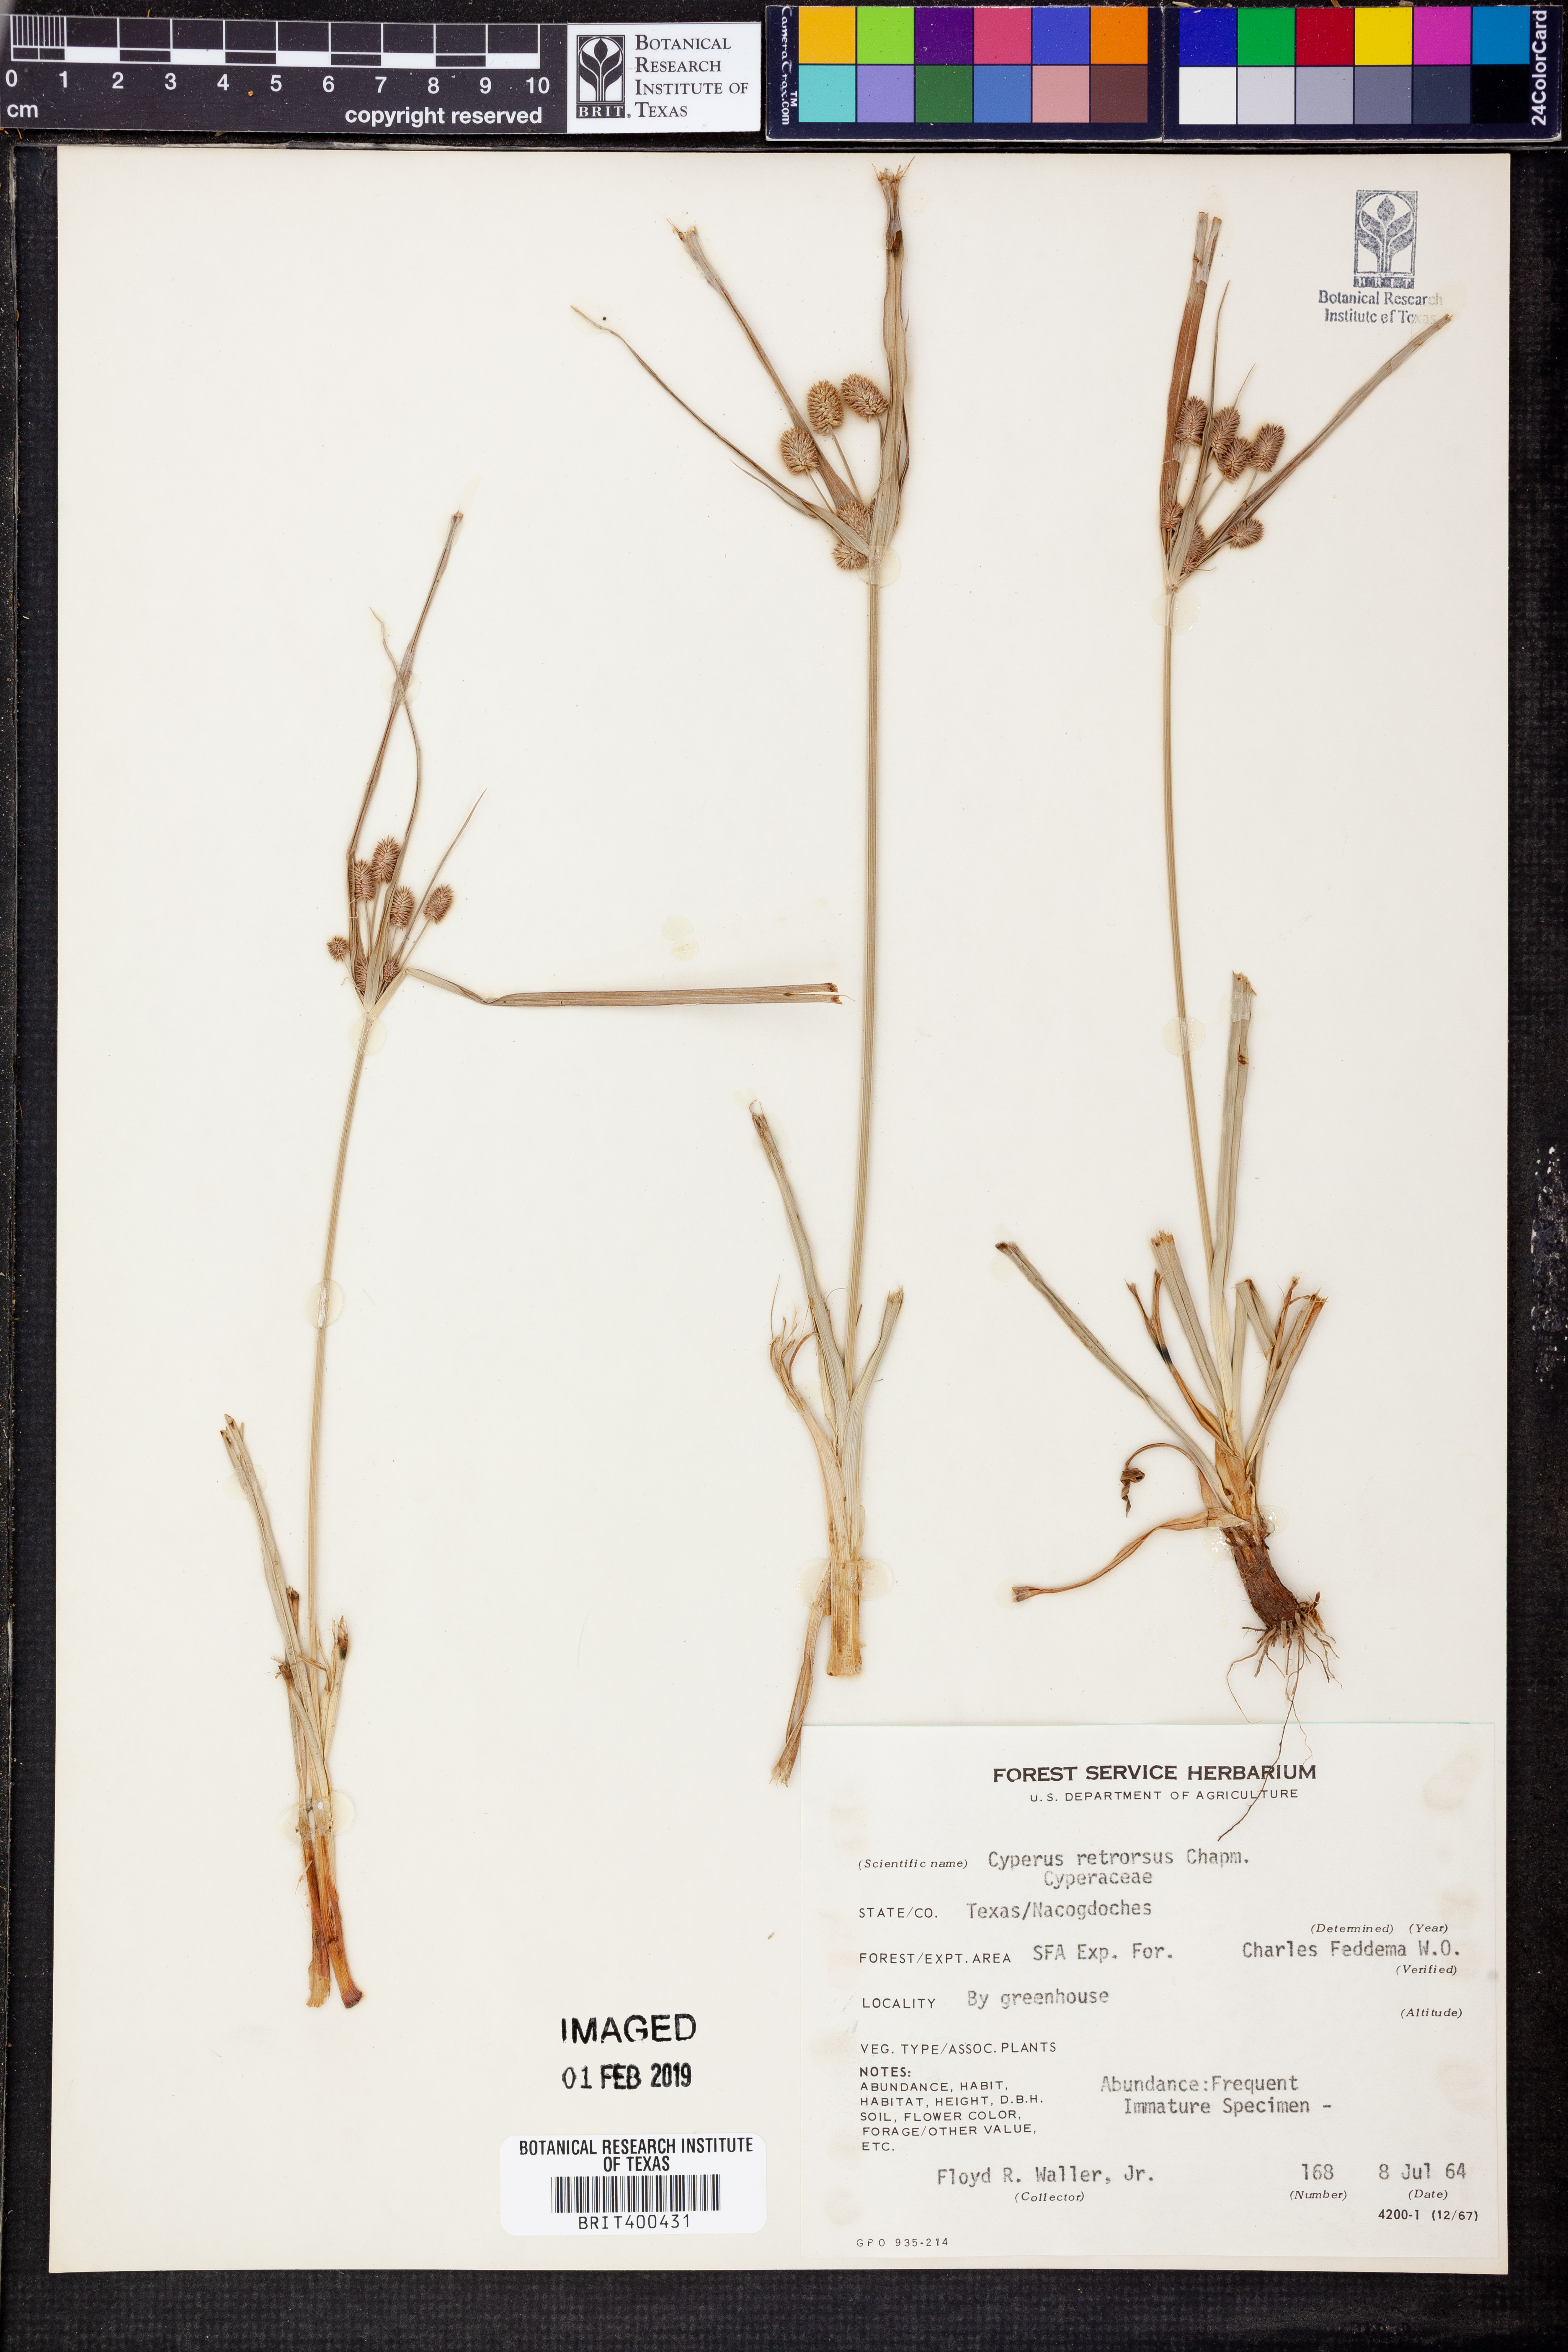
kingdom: Plantae
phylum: Tracheophyta
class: Liliopsida
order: Poales
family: Cyperaceae
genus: Cyperus
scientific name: Cyperus retrorsus
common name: Pinebarren flat sedge
